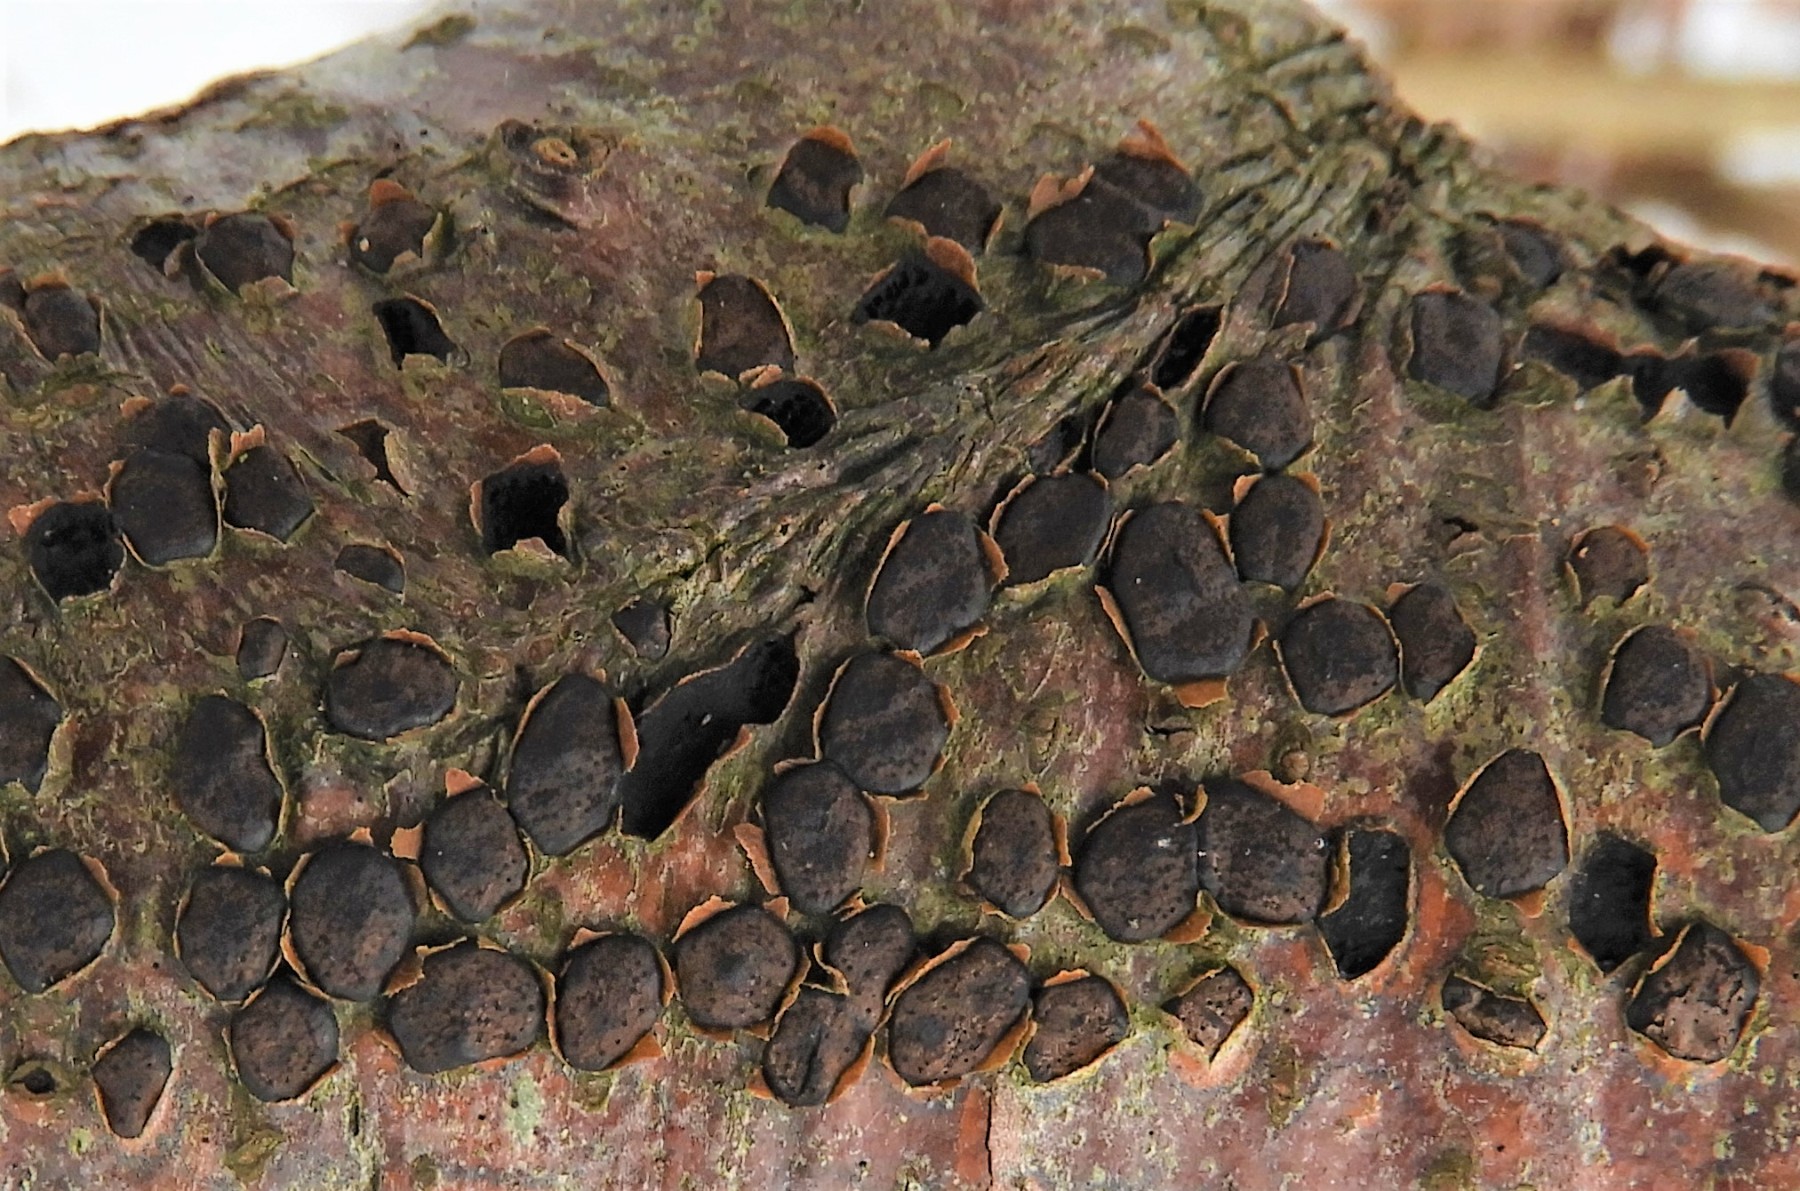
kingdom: Fungi
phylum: Ascomycota
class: Sordariomycetes
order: Xylariales
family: Diatrypaceae
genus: Diatrype
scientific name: Diatrype disciformis
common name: kant-kulskorpe
